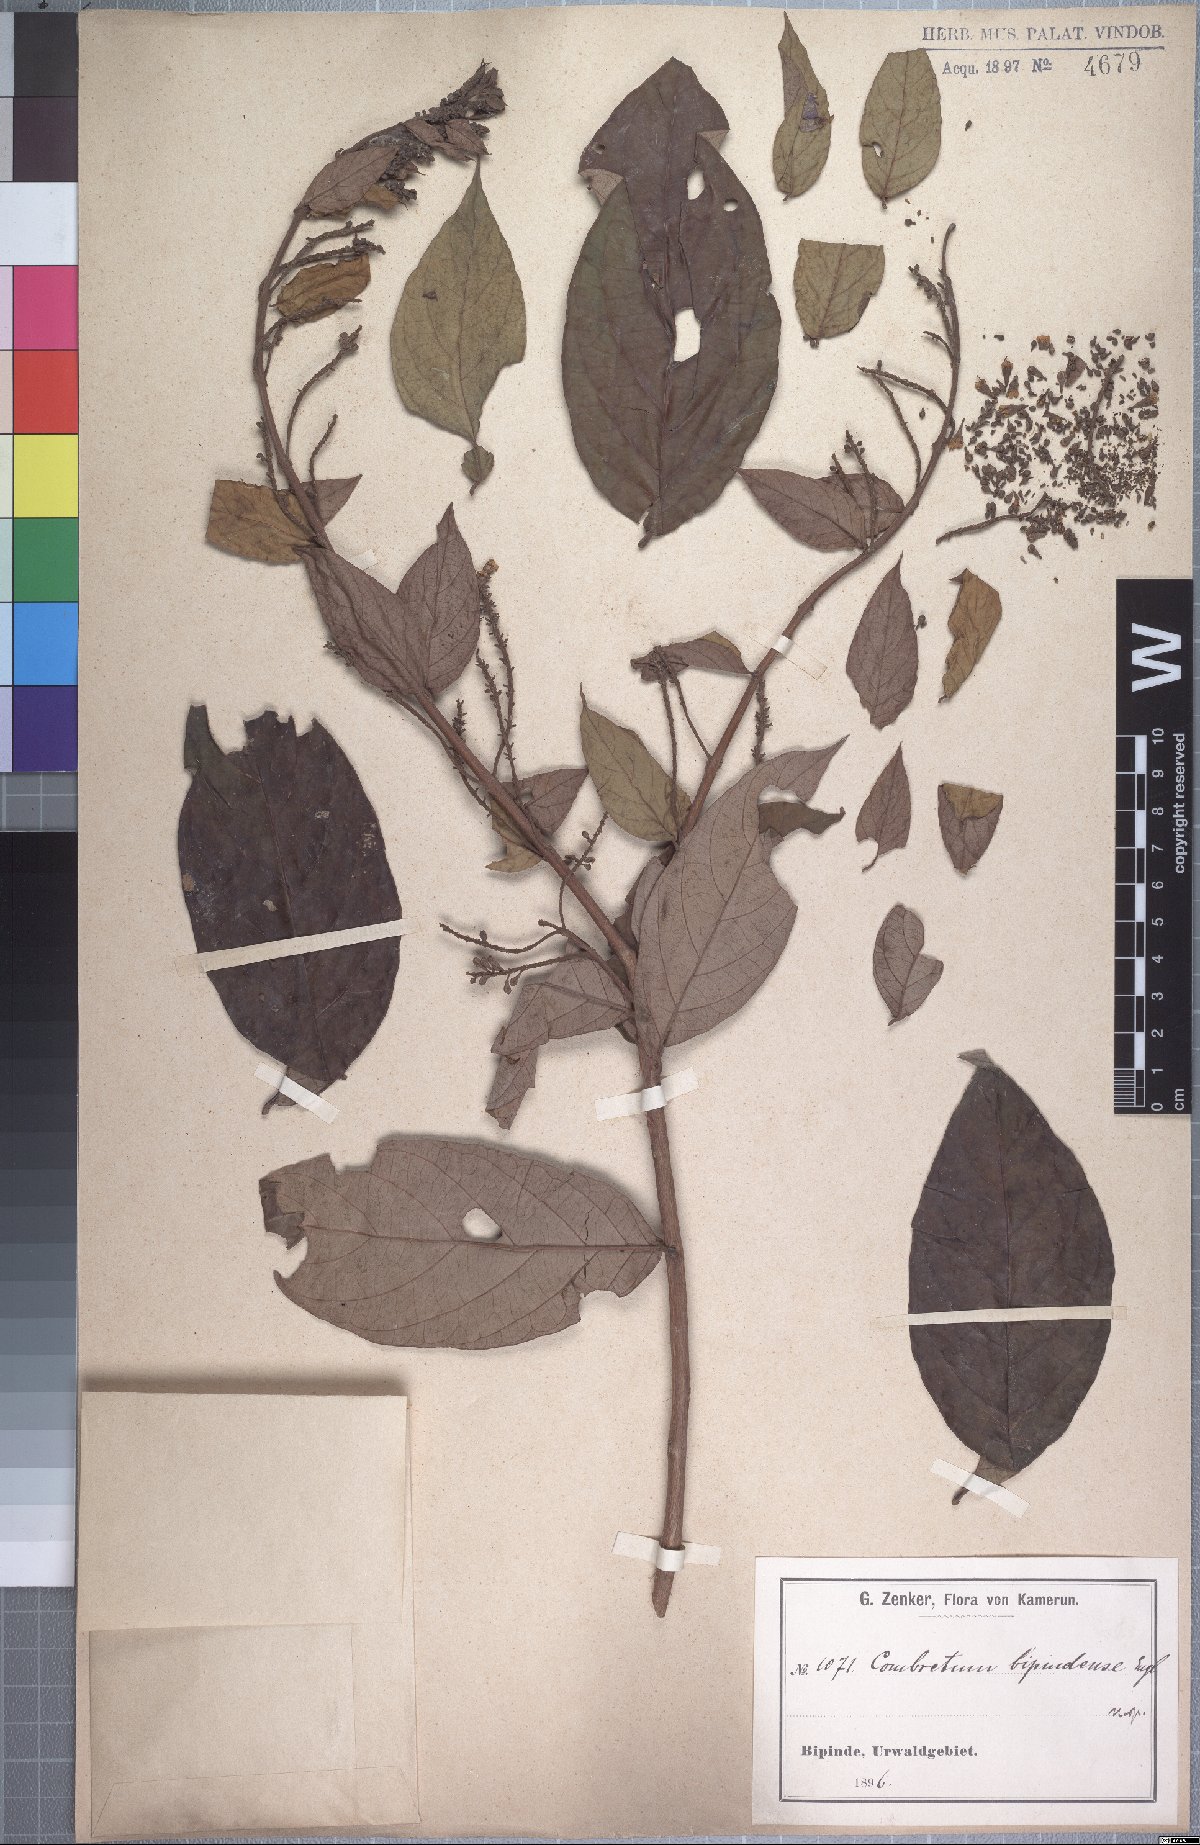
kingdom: Plantae
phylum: Tracheophyta
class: Magnoliopsida
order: Myrtales
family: Combretaceae
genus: Combretum
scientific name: Combretum bipindense
